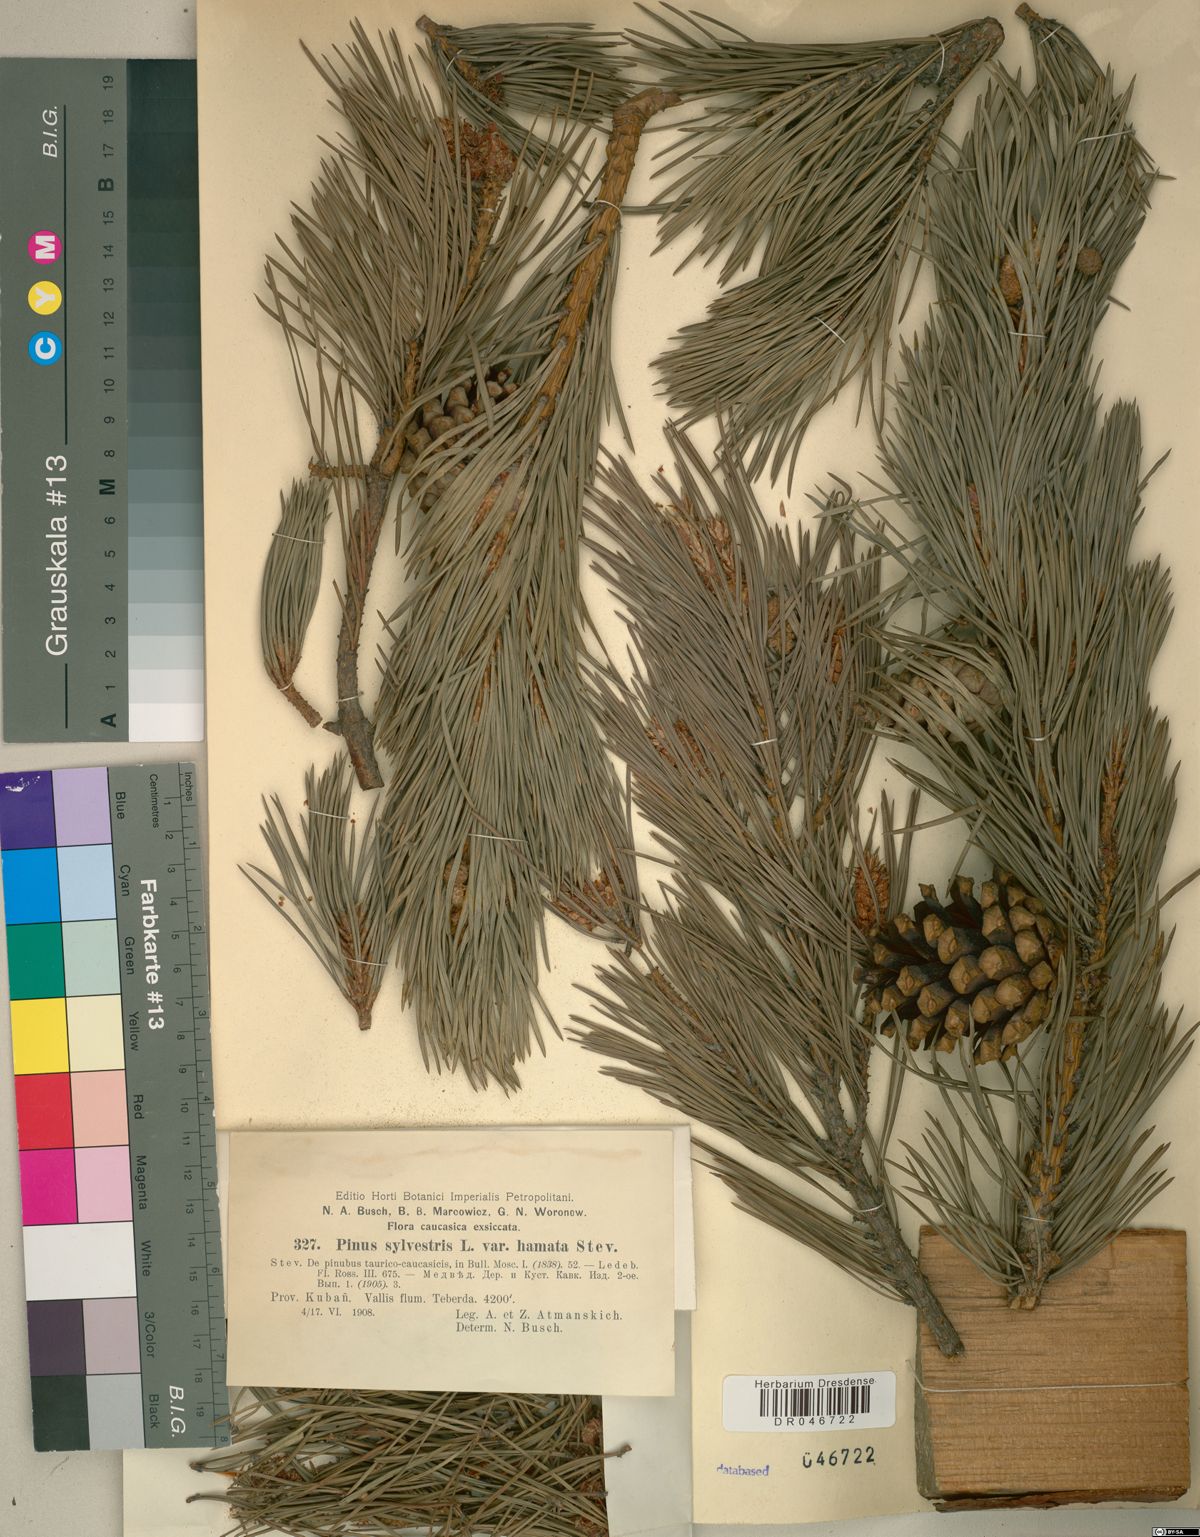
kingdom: Plantae
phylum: Tracheophyta
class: Pinopsida
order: Pinales
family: Pinaceae
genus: Pinus
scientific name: Pinus sylvestris
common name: Scots pine
